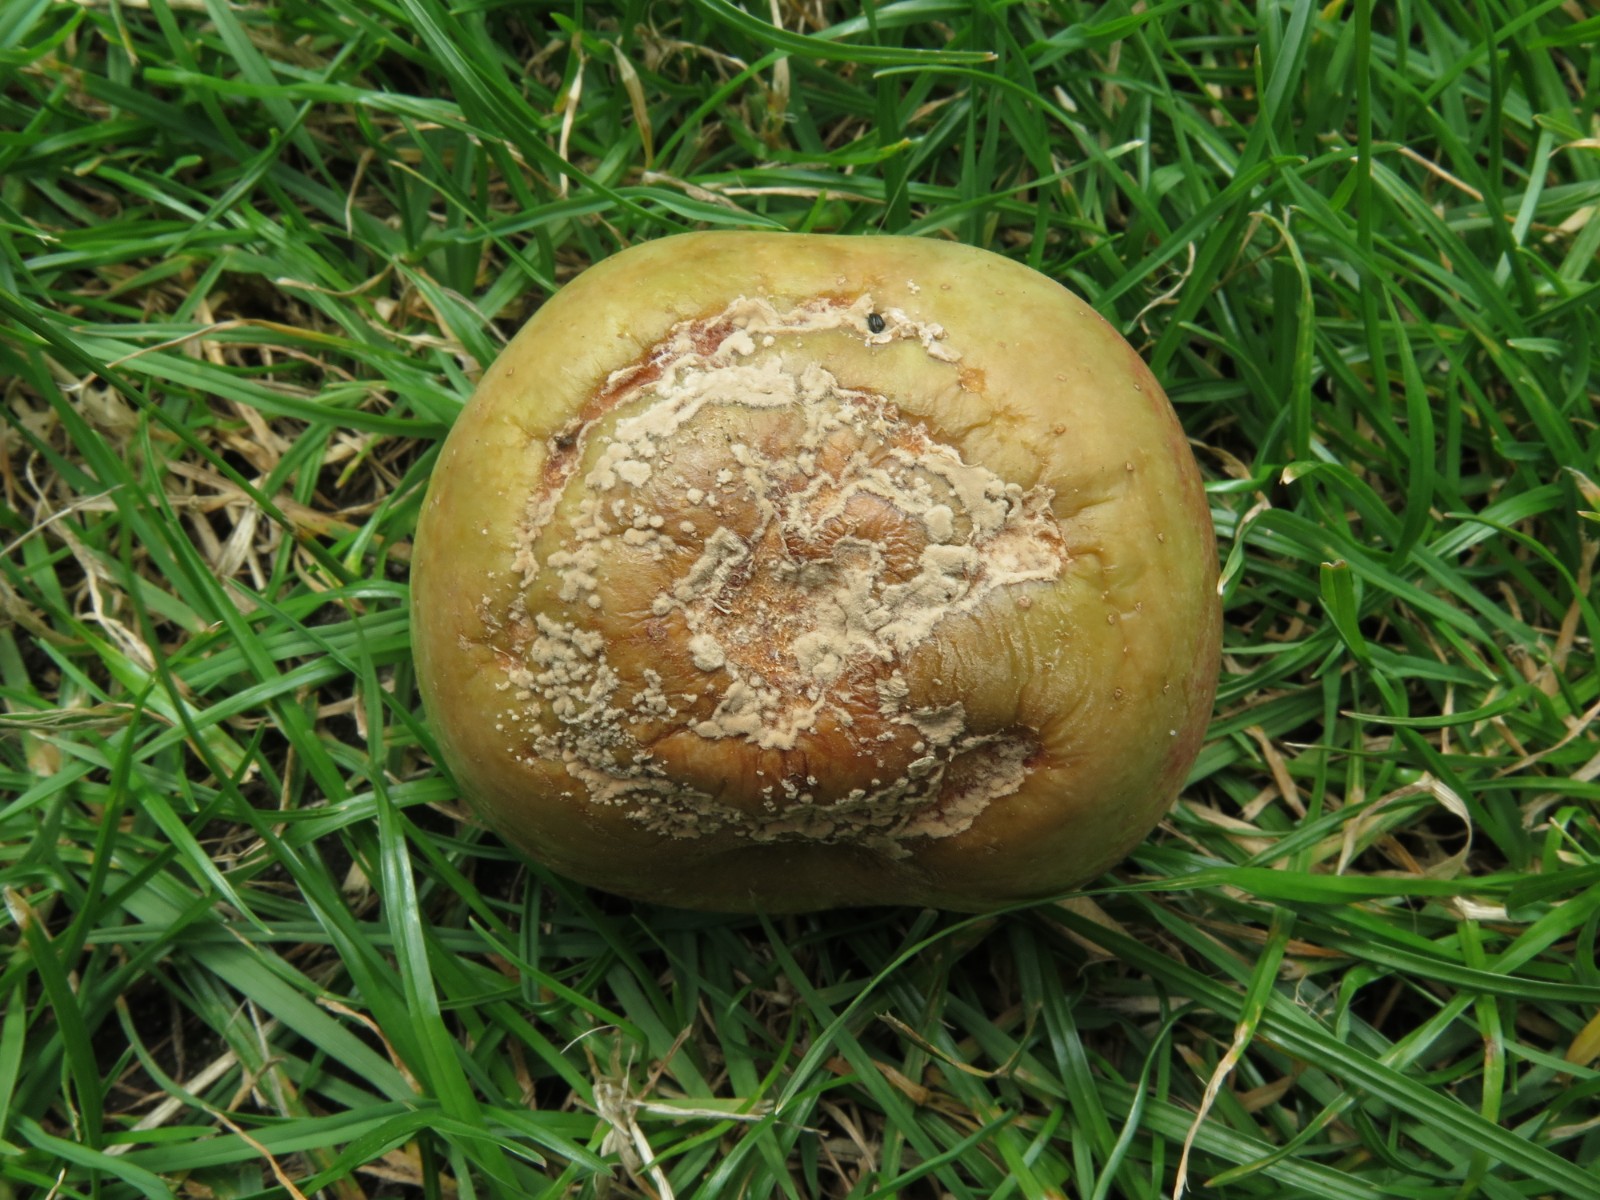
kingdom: Fungi
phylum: Ascomycota
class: Leotiomycetes
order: Helotiales
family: Sclerotiniaceae
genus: Monilinia
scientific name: Monilinia fructigena
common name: æble-knoldskive
